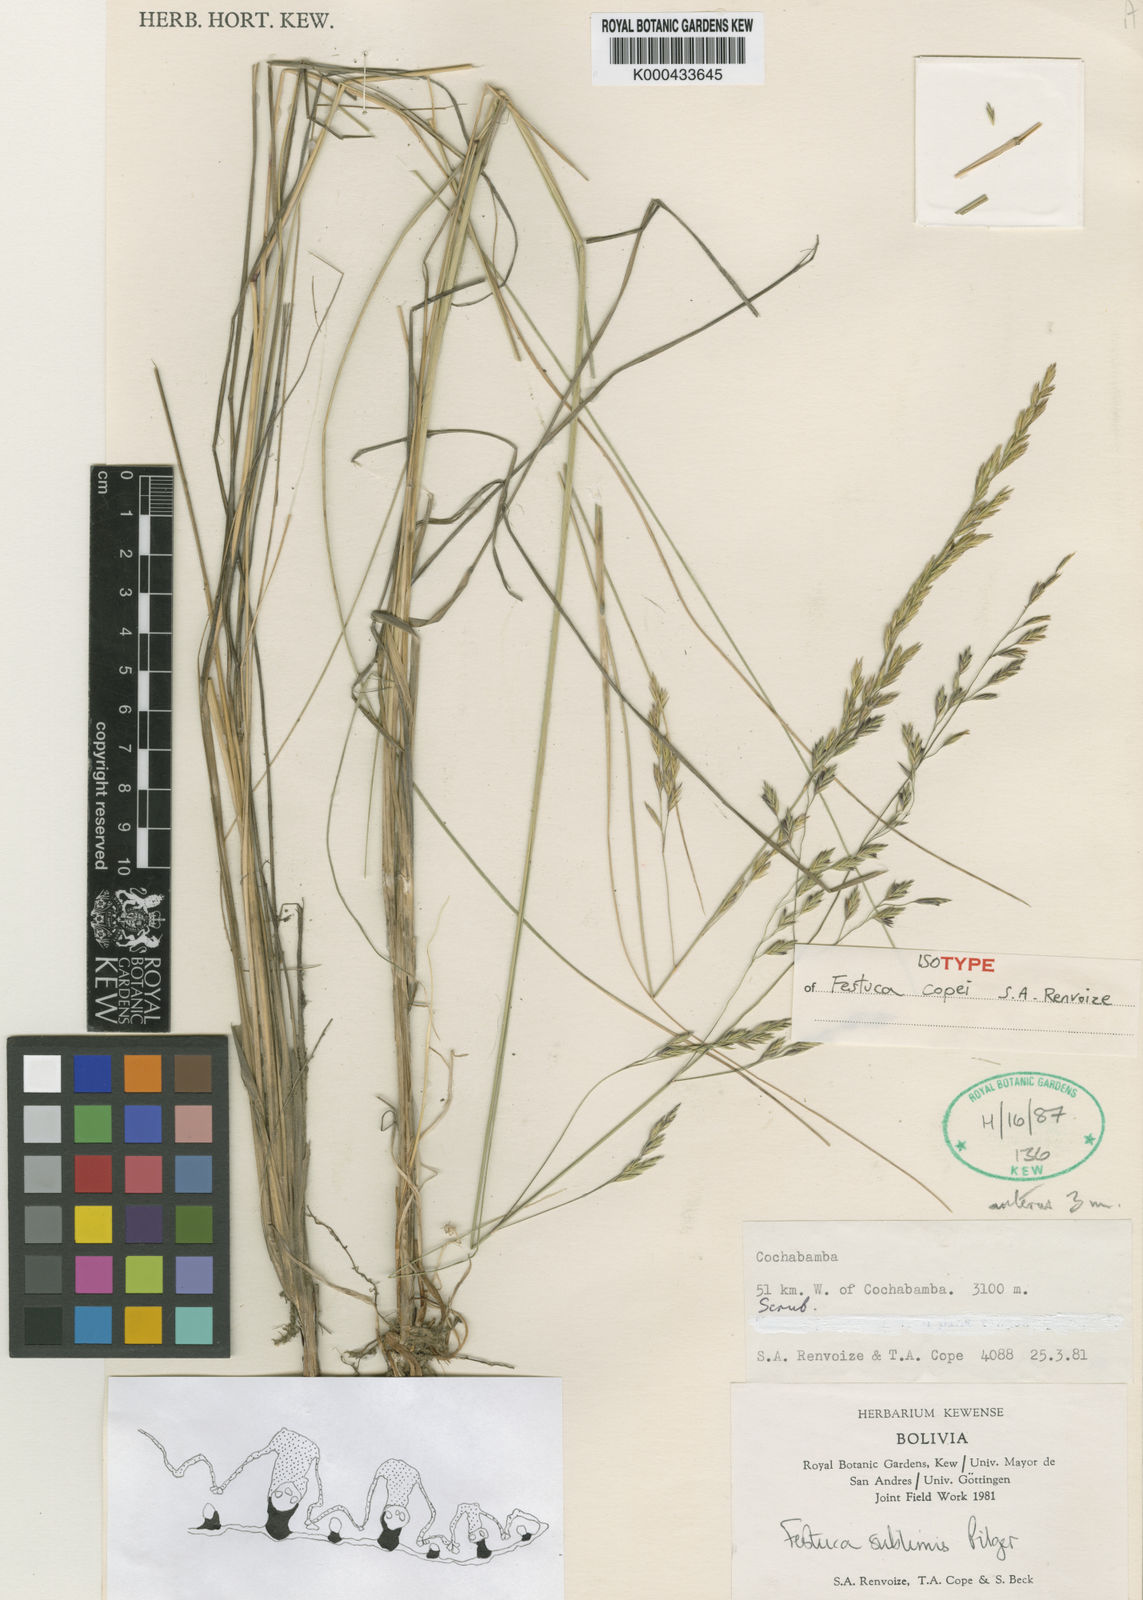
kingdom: Plantae
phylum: Tracheophyta
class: Liliopsida
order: Poales
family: Poaceae
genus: Festuca
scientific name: Festuca copei
